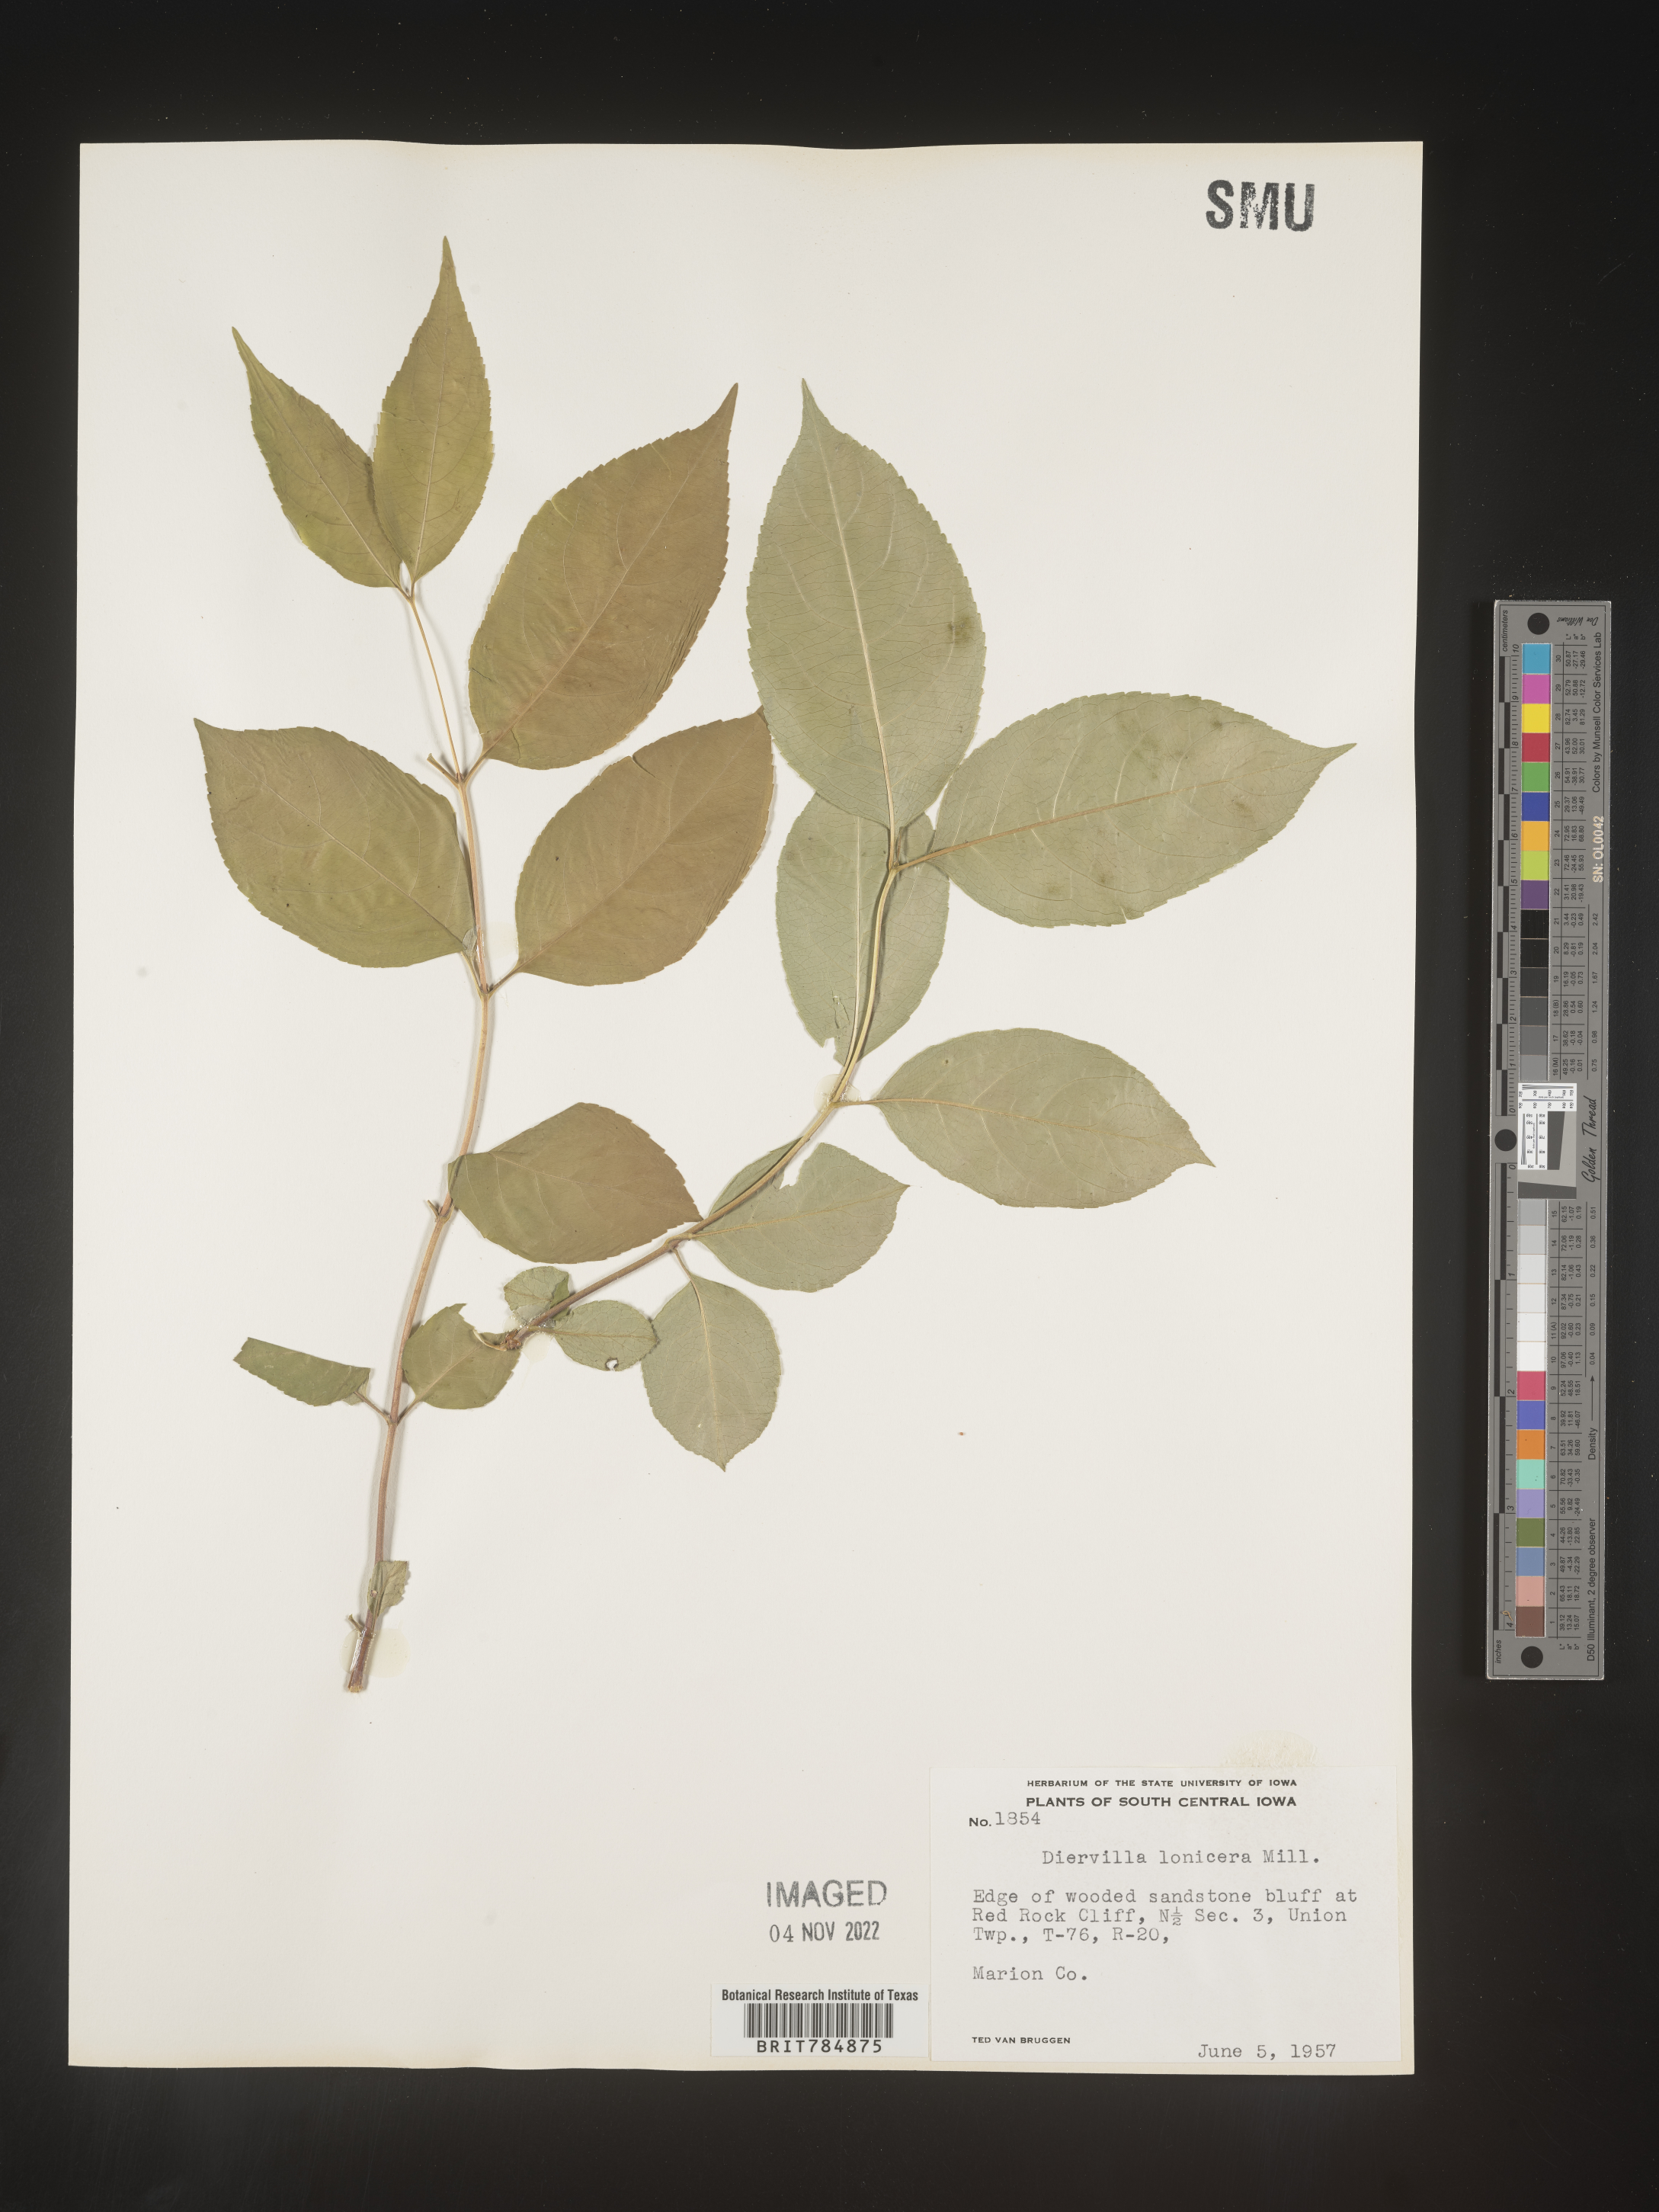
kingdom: Plantae
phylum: Tracheophyta
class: Magnoliopsida
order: Dipsacales
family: Caprifoliaceae
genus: Diervilla
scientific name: Diervilla lonicera
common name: Bush-honeysuckle
